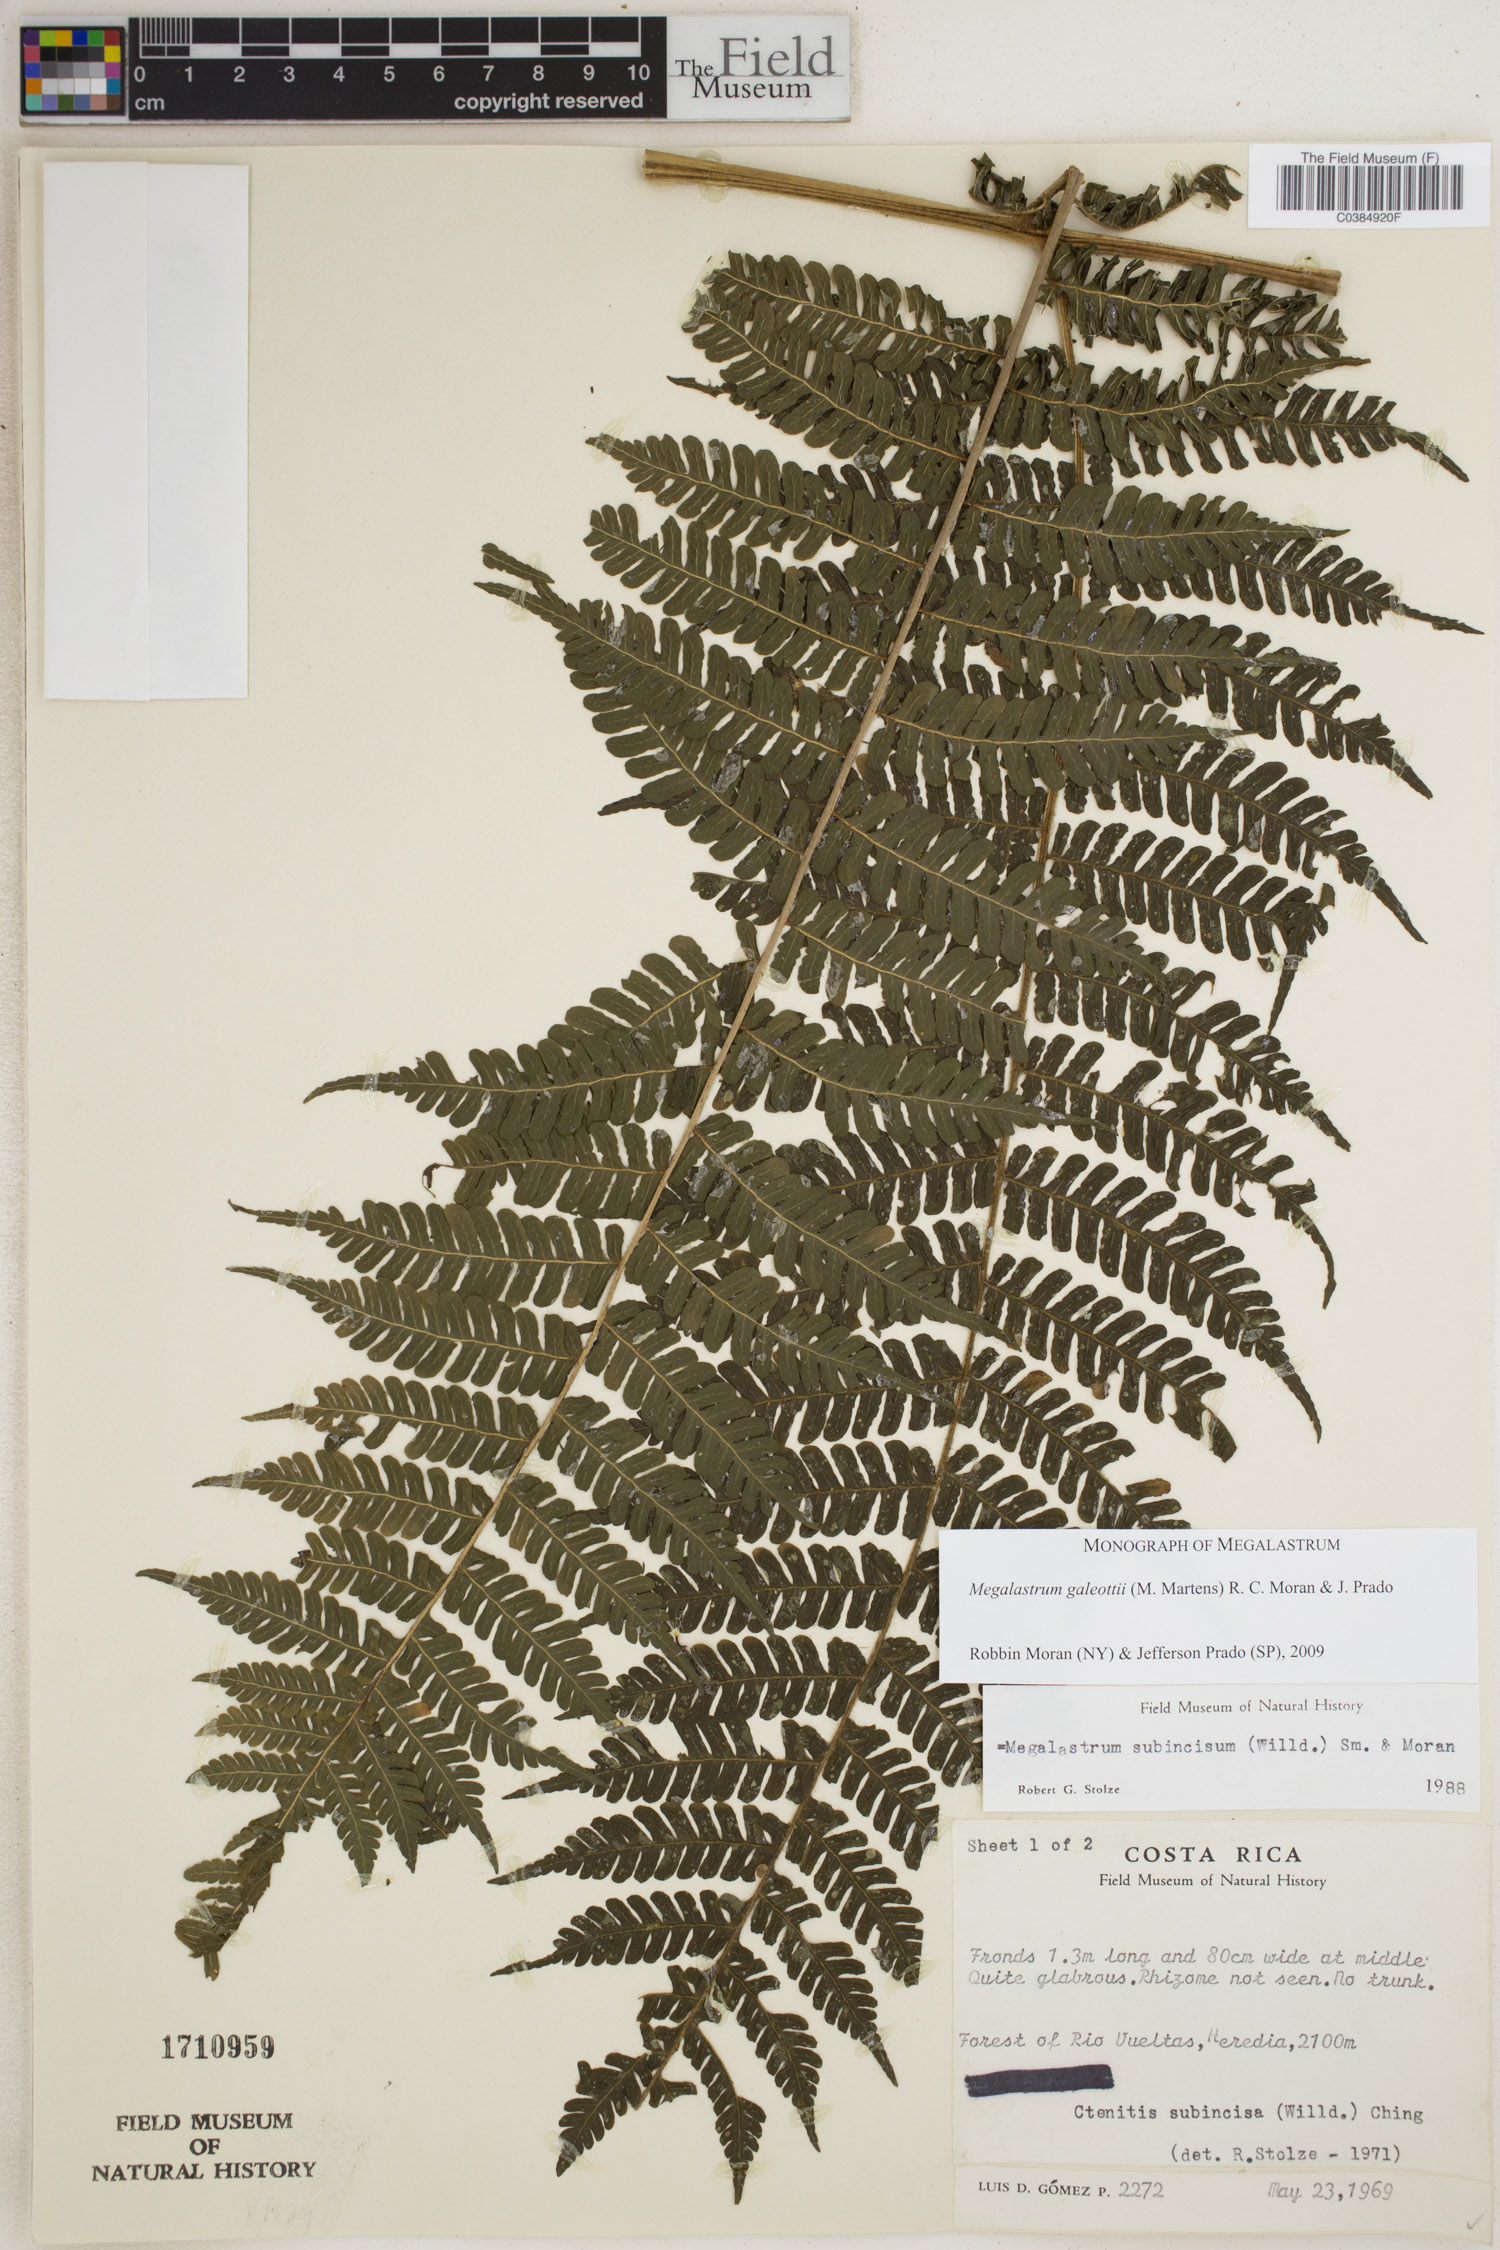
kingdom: Plantae
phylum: Tracheophyta
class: Polypodiopsida
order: Polypodiales
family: Dryopteridaceae
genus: Megalastrum
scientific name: Megalastrum galeottii
